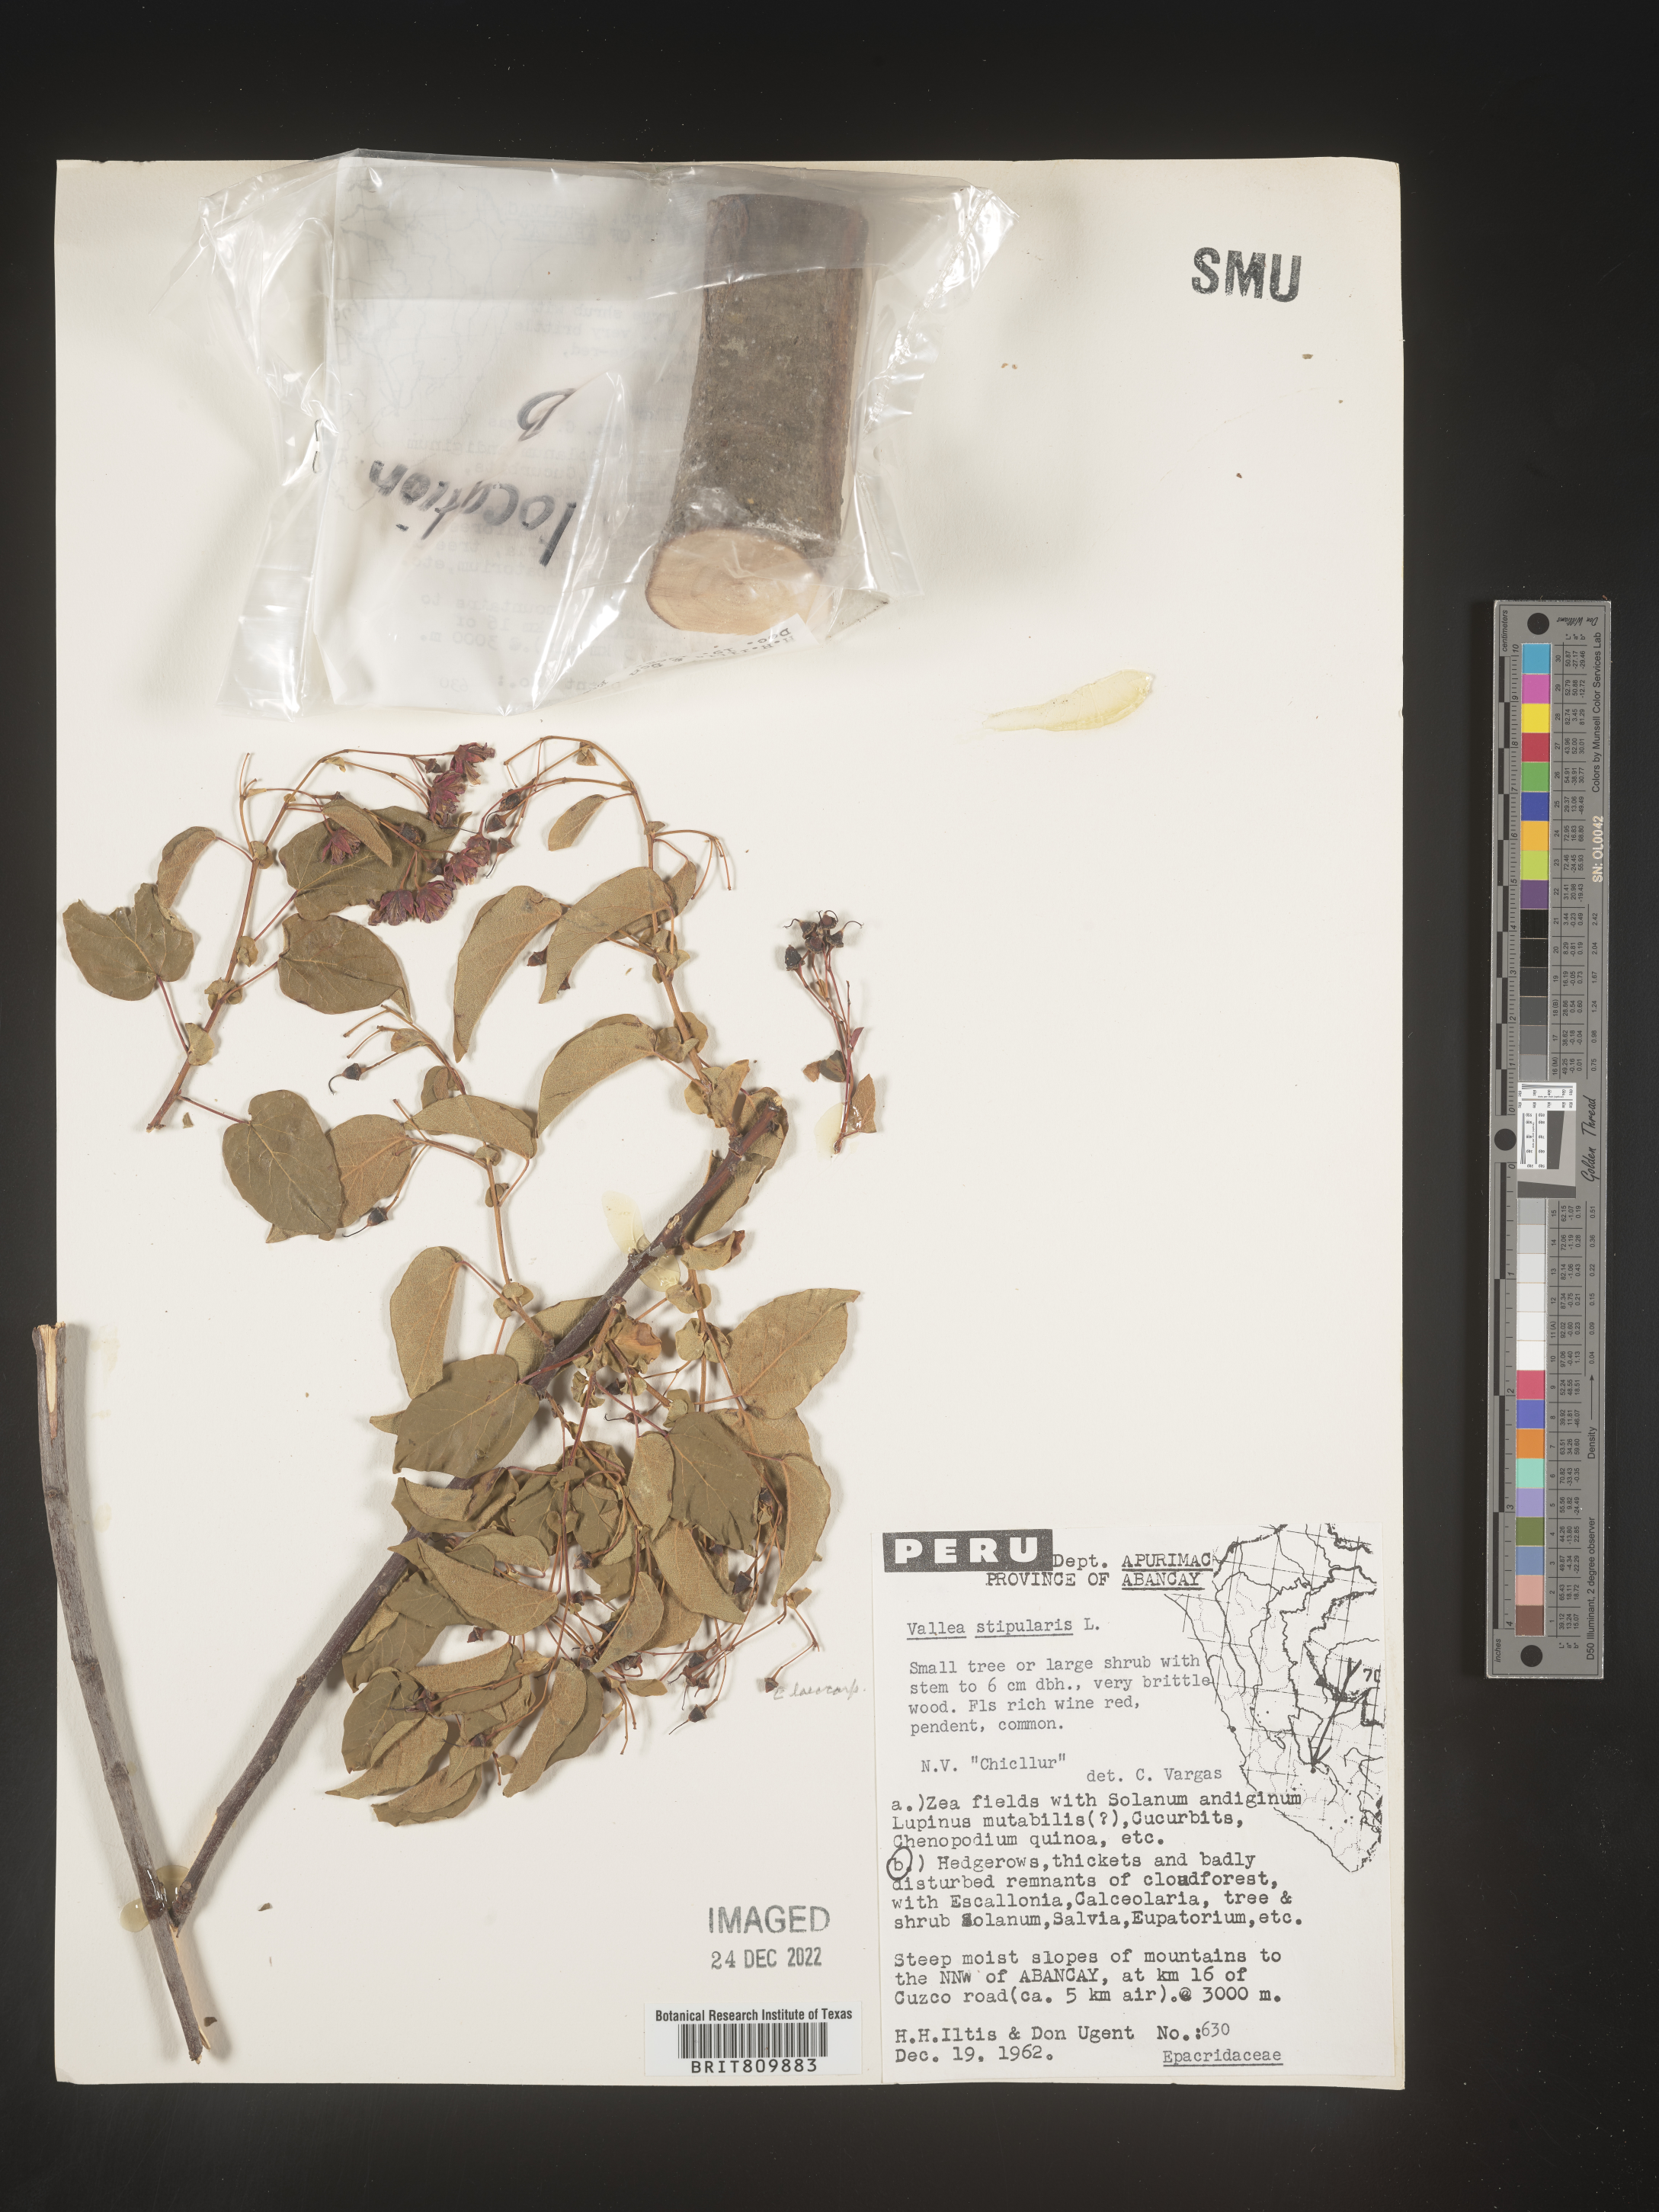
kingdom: Plantae
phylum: Tracheophyta
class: Magnoliopsida
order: Oxalidales
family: Elaeocarpaceae
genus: Vallea
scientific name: Vallea
